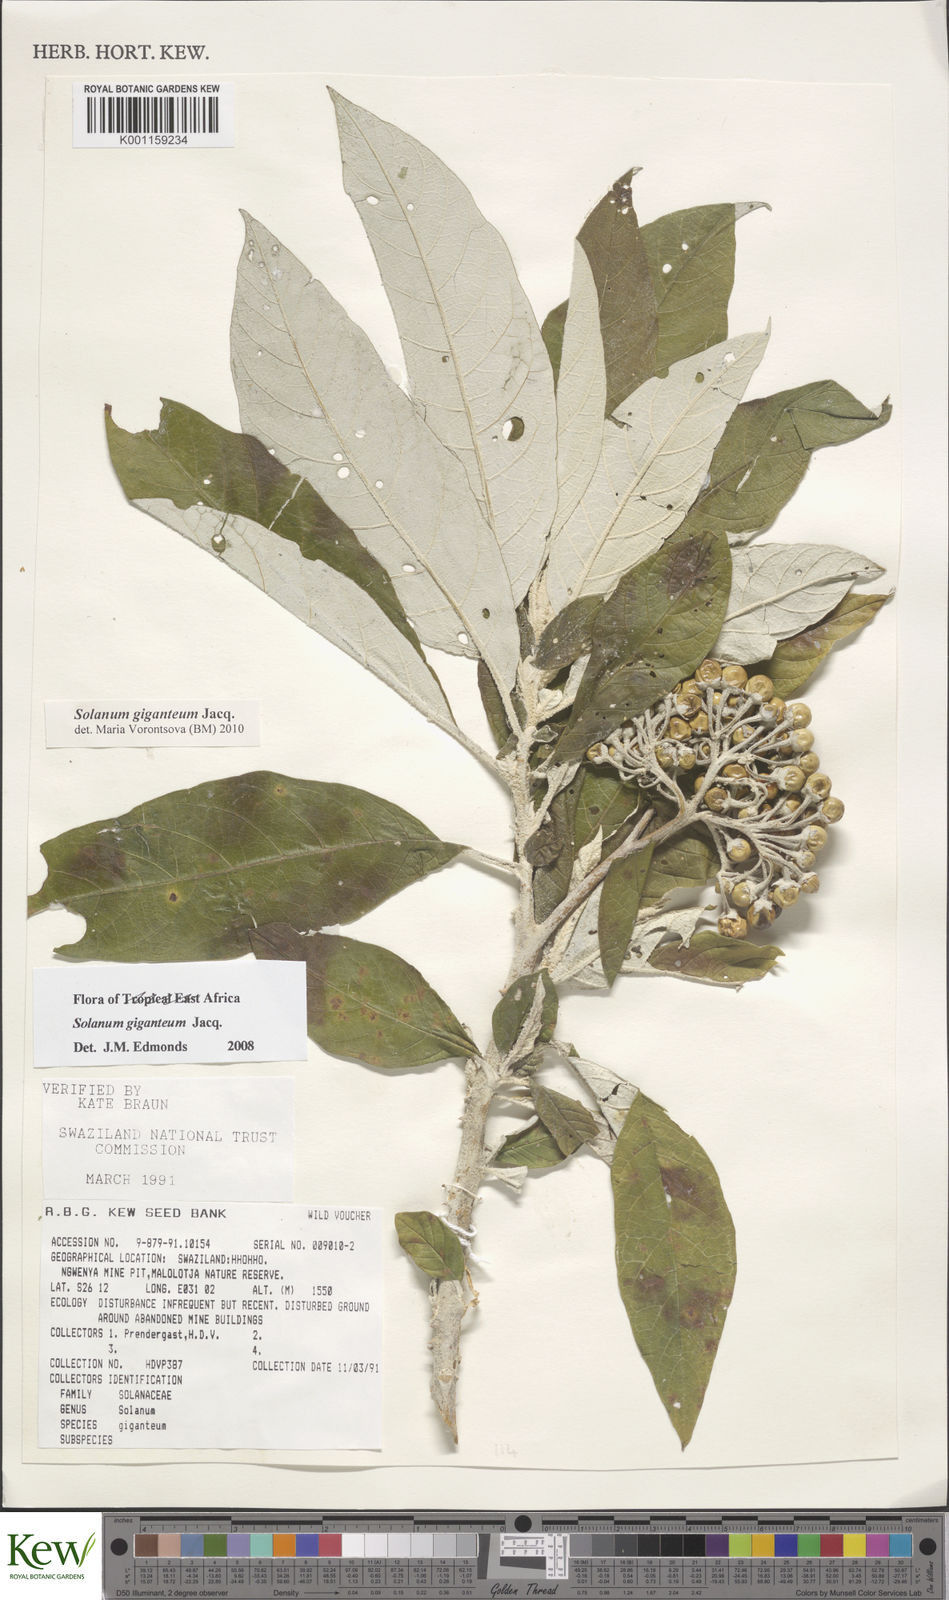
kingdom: Plantae
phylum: Tracheophyta
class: Magnoliopsida
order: Solanales
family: Solanaceae
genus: Solanum
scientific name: Solanum giganteum
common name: Healing-leaf-tree
